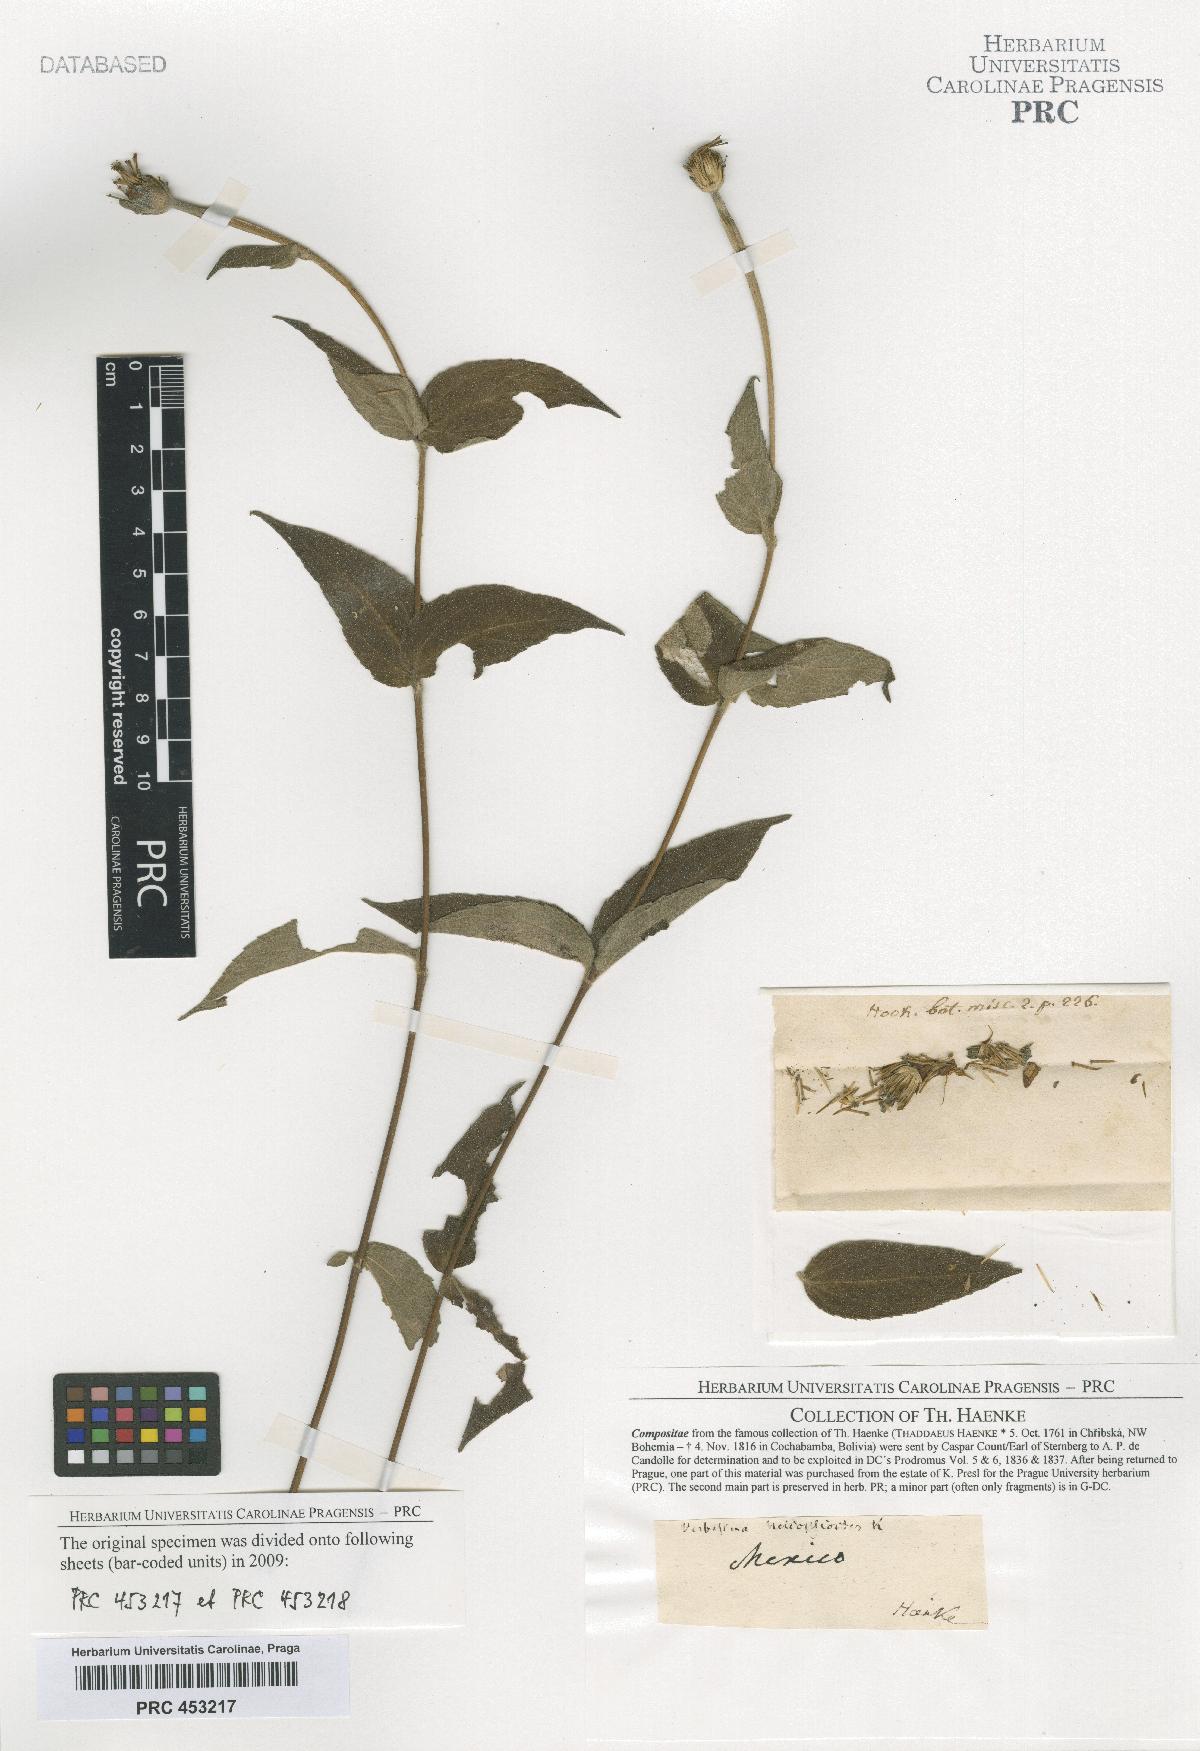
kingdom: Plantae
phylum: Tracheophyta
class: Magnoliopsida
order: Asterales
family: Asteraceae
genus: Verbesina
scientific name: Verbesina
